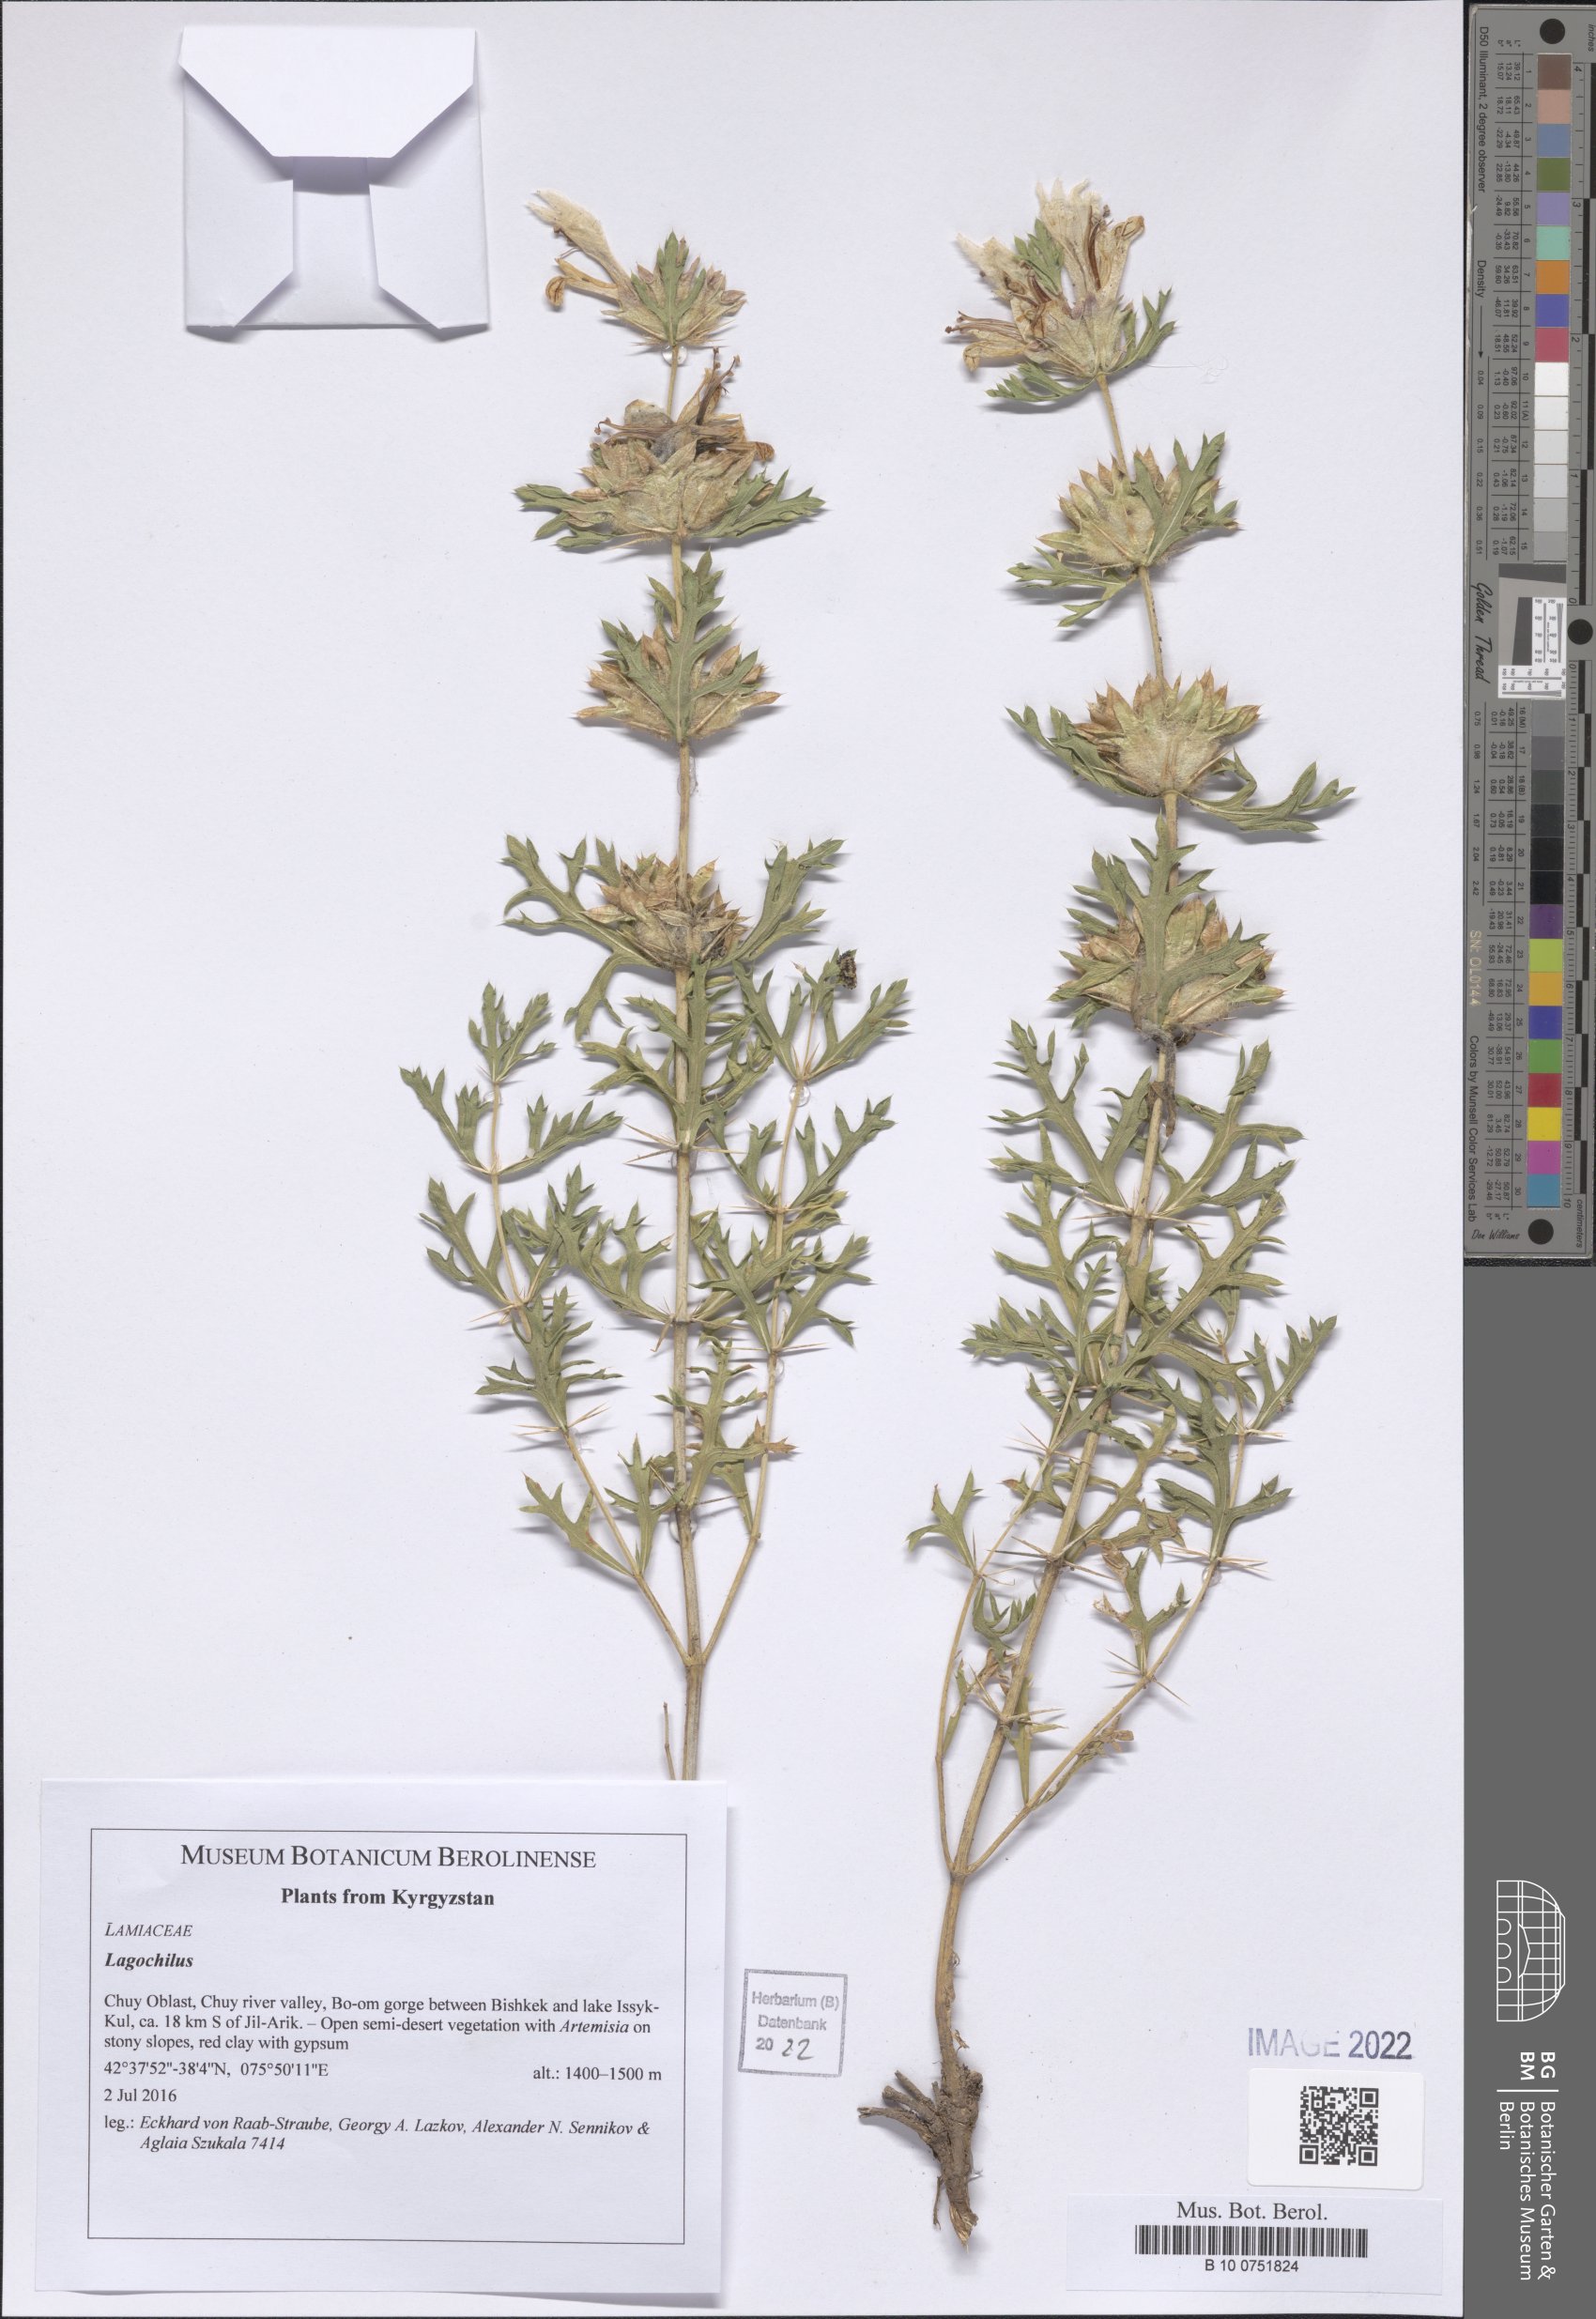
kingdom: Plantae
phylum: Tracheophyta
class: Magnoliopsida
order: Lamiales
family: Lamiaceae
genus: Lagochilus
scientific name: Lagochilus
